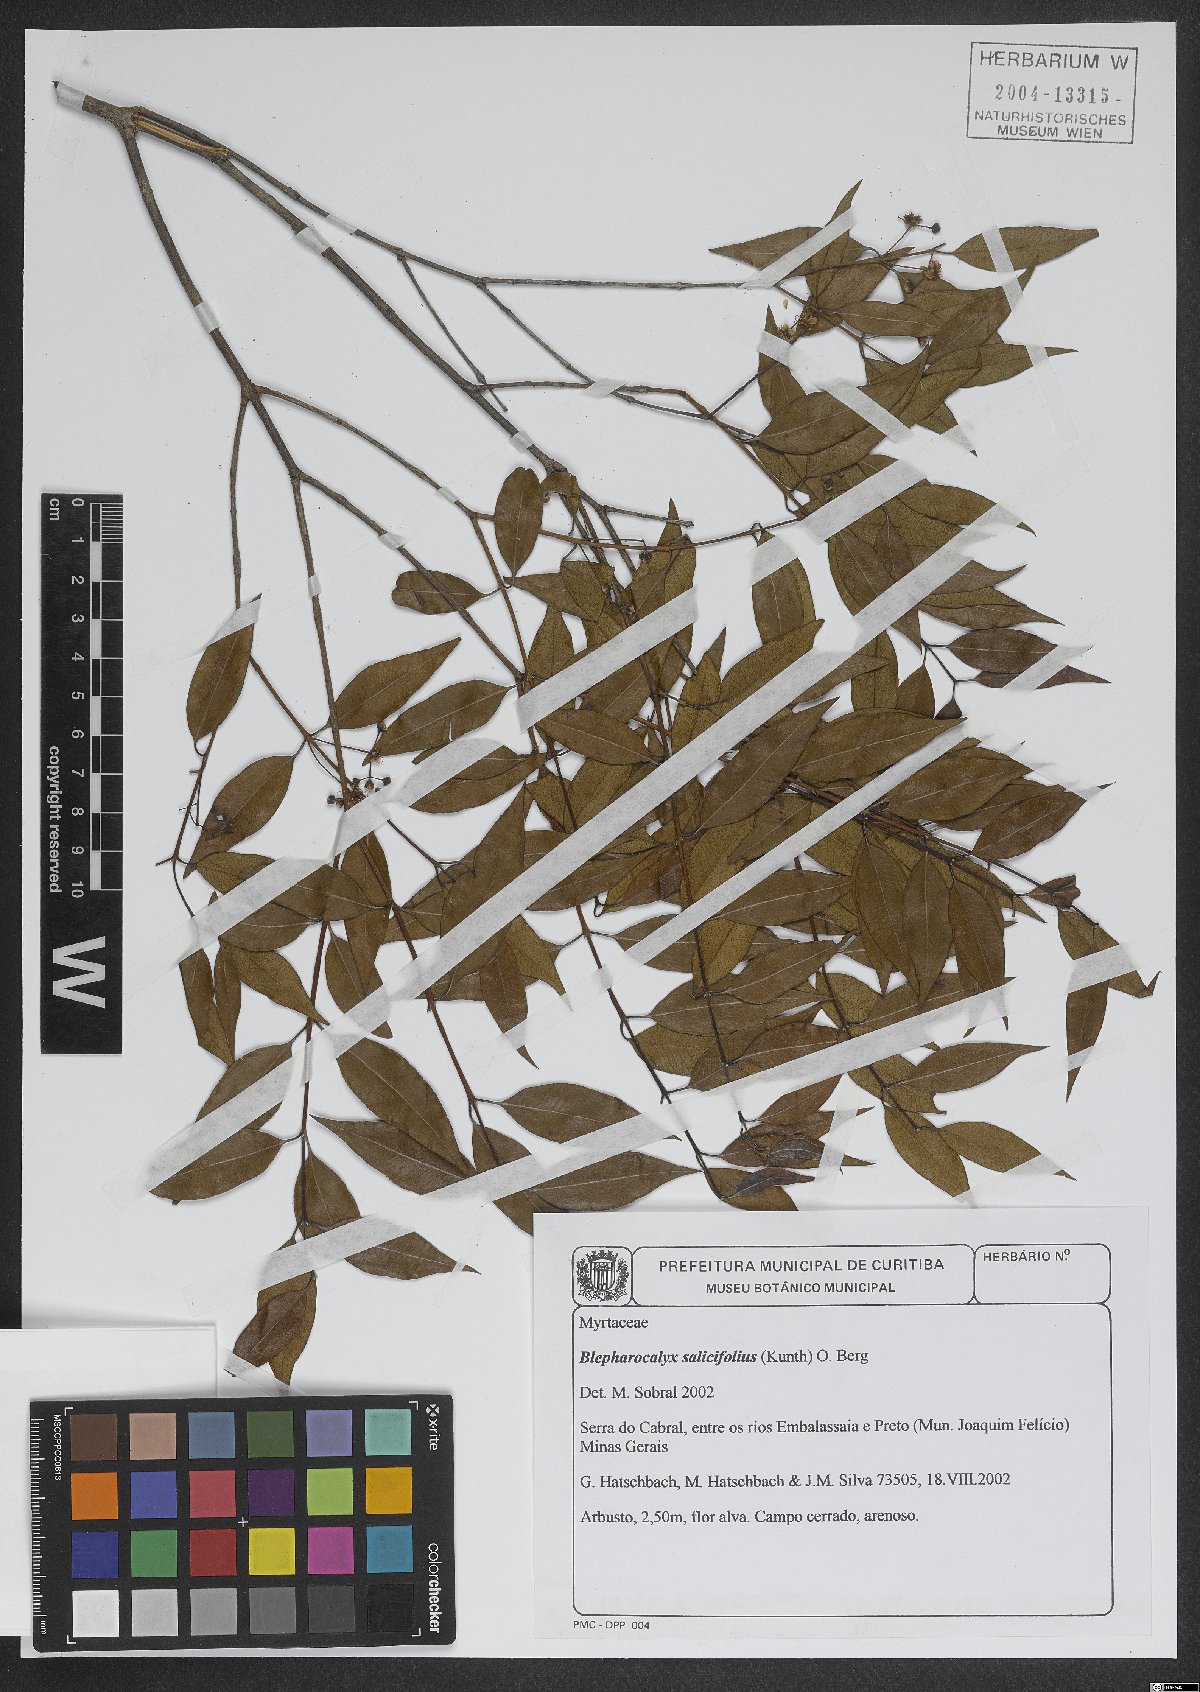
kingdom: Plantae
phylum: Tracheophyta
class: Magnoliopsida
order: Myrtales
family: Myrtaceae
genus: Blepharocalyx
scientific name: Blepharocalyx salicifolius
